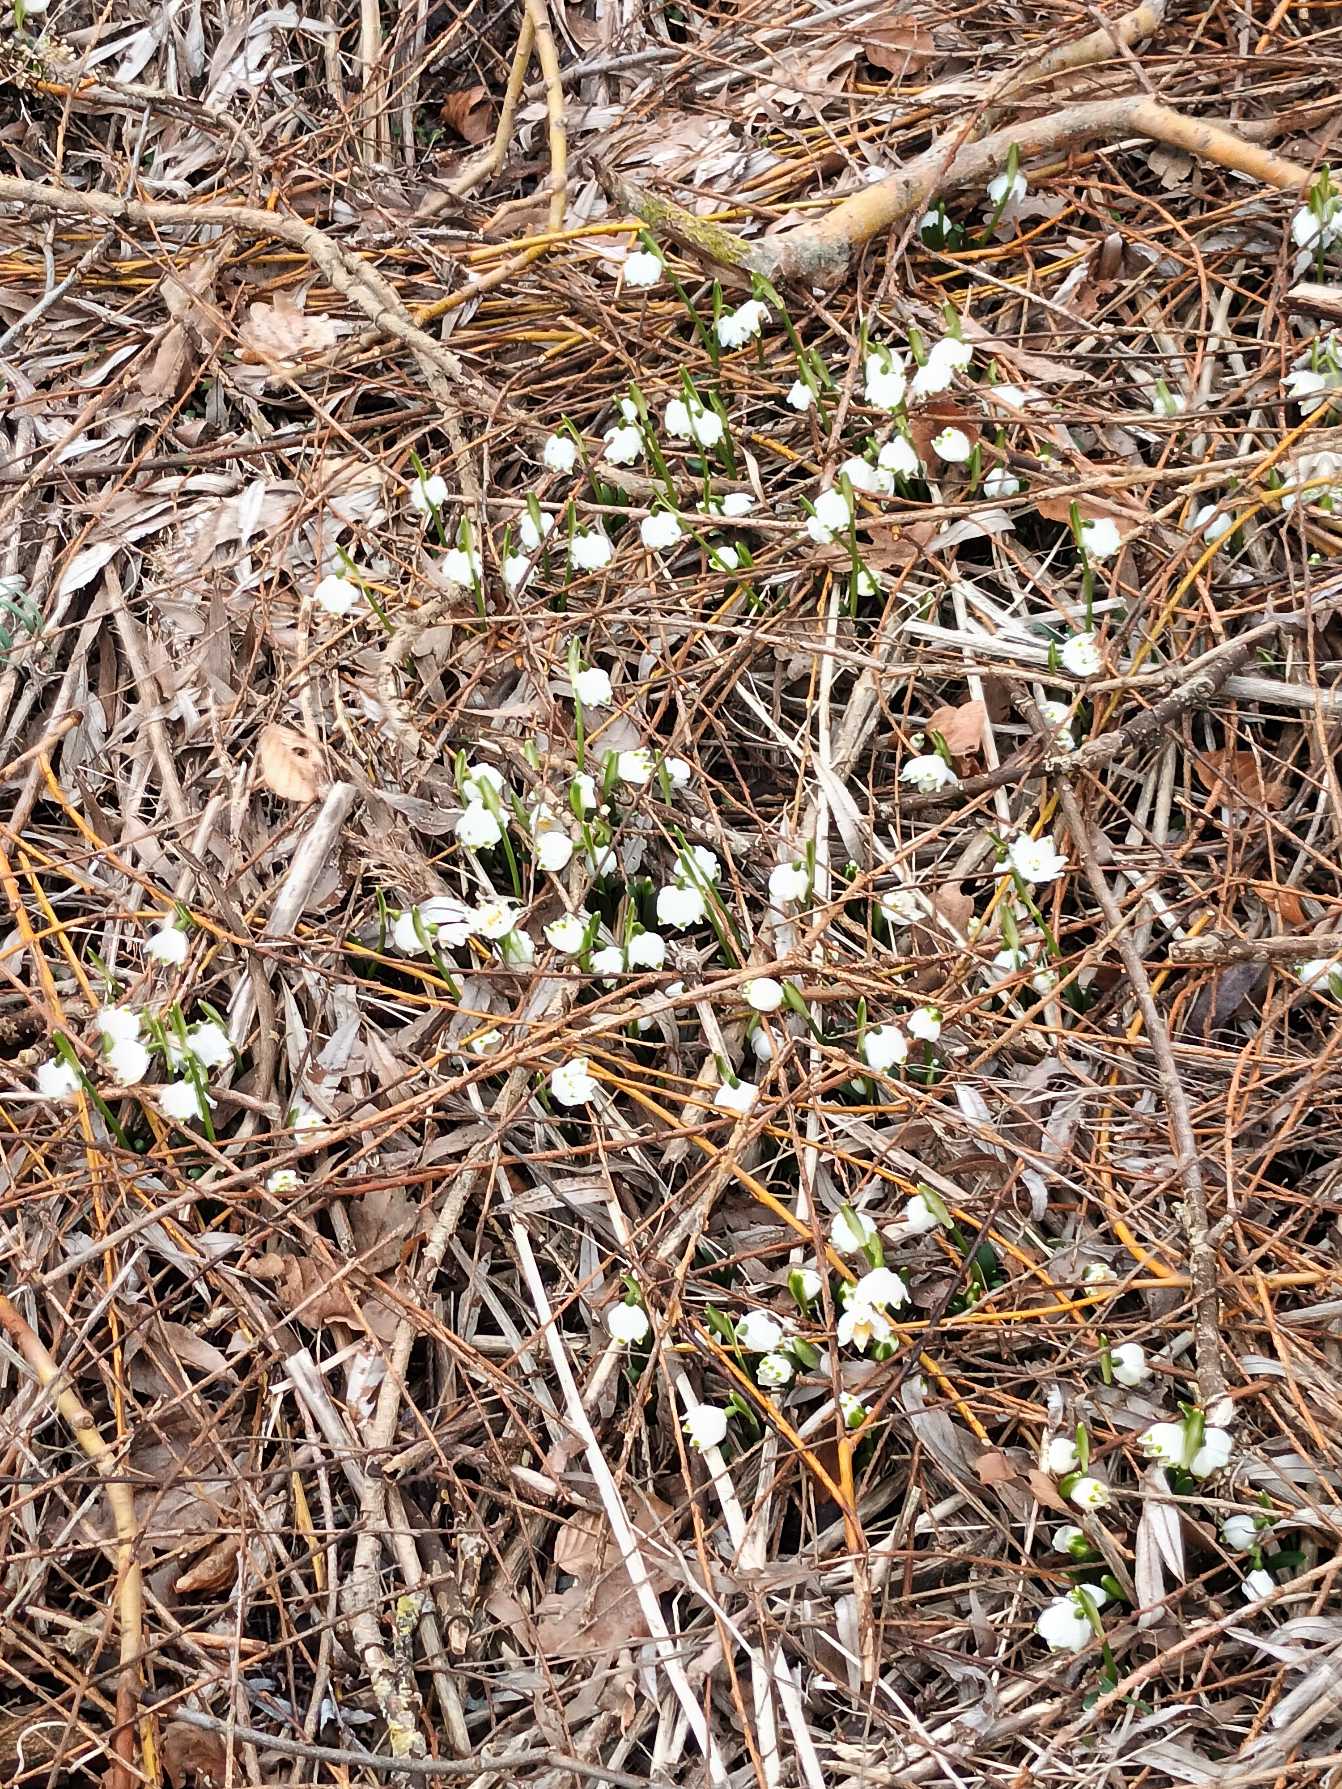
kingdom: Plantae
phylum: Tracheophyta
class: Liliopsida
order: Asparagales
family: Amaryllidaceae
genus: Leucojum
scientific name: Leucojum vernum
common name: Dorthealilje
